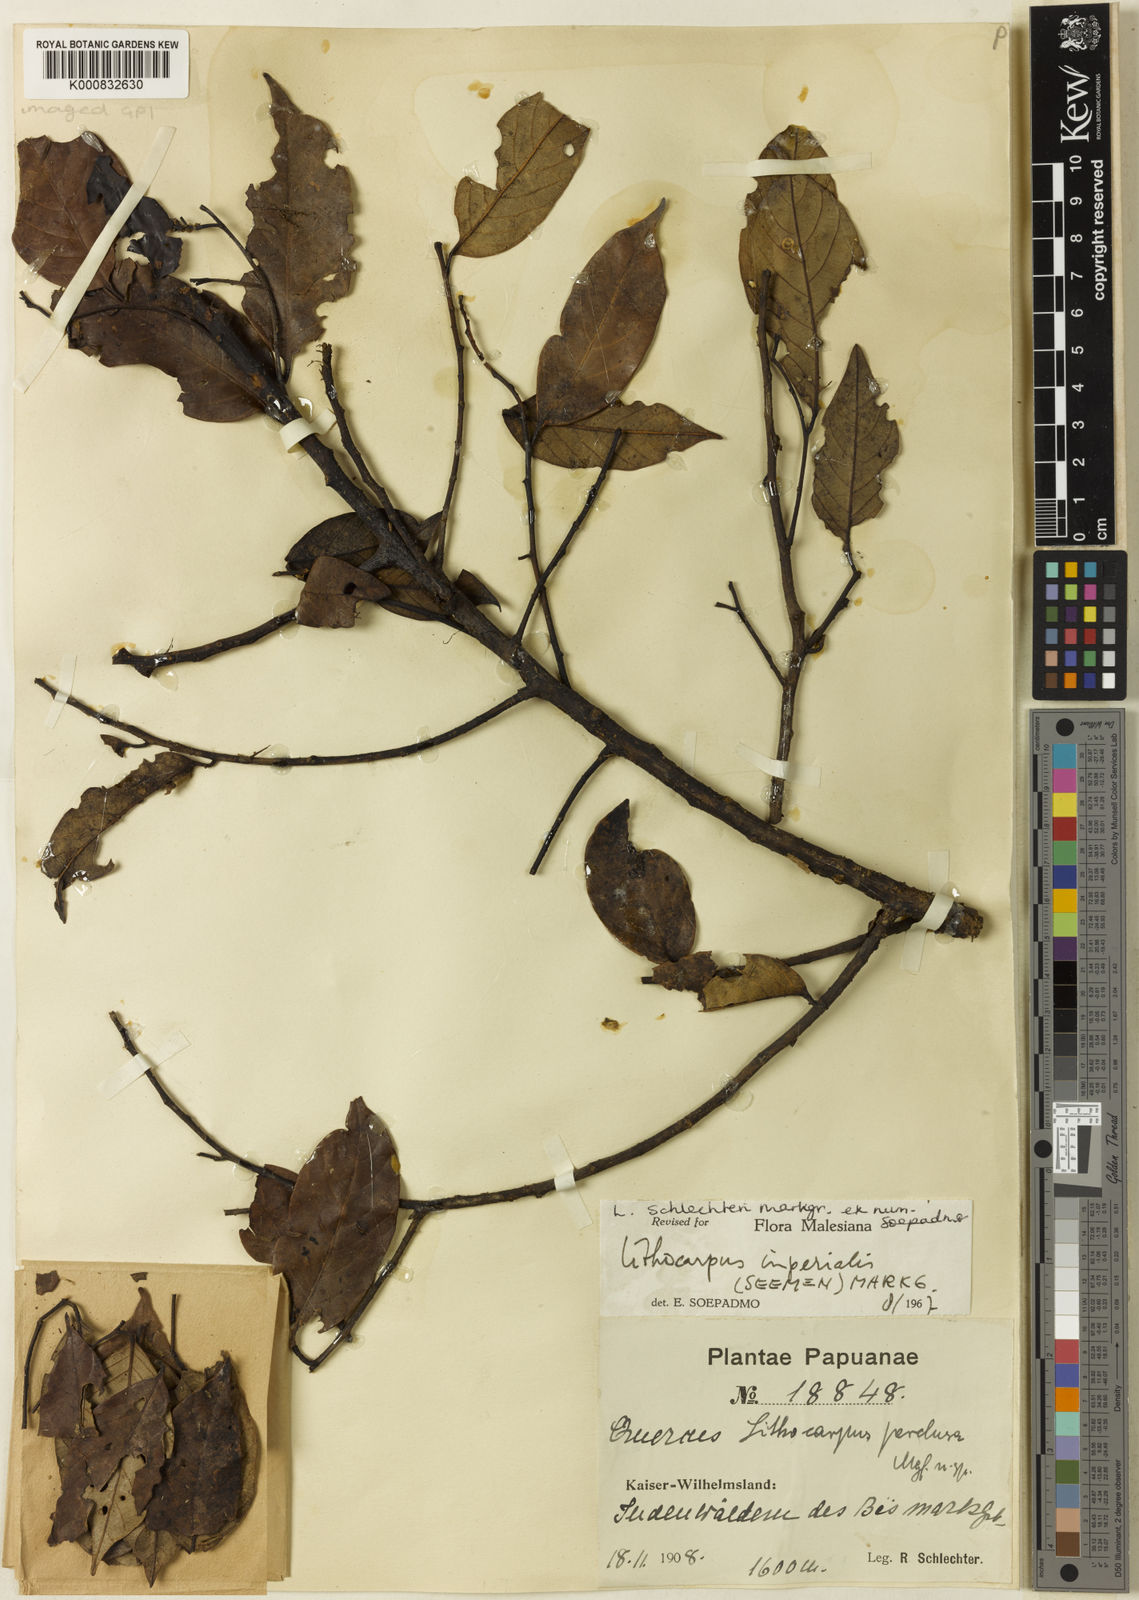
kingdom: Plantae
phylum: Tracheophyta
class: Magnoliopsida
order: Fagales
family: Fagaceae
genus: Lithocarpus
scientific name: Lithocarpus imperialis
